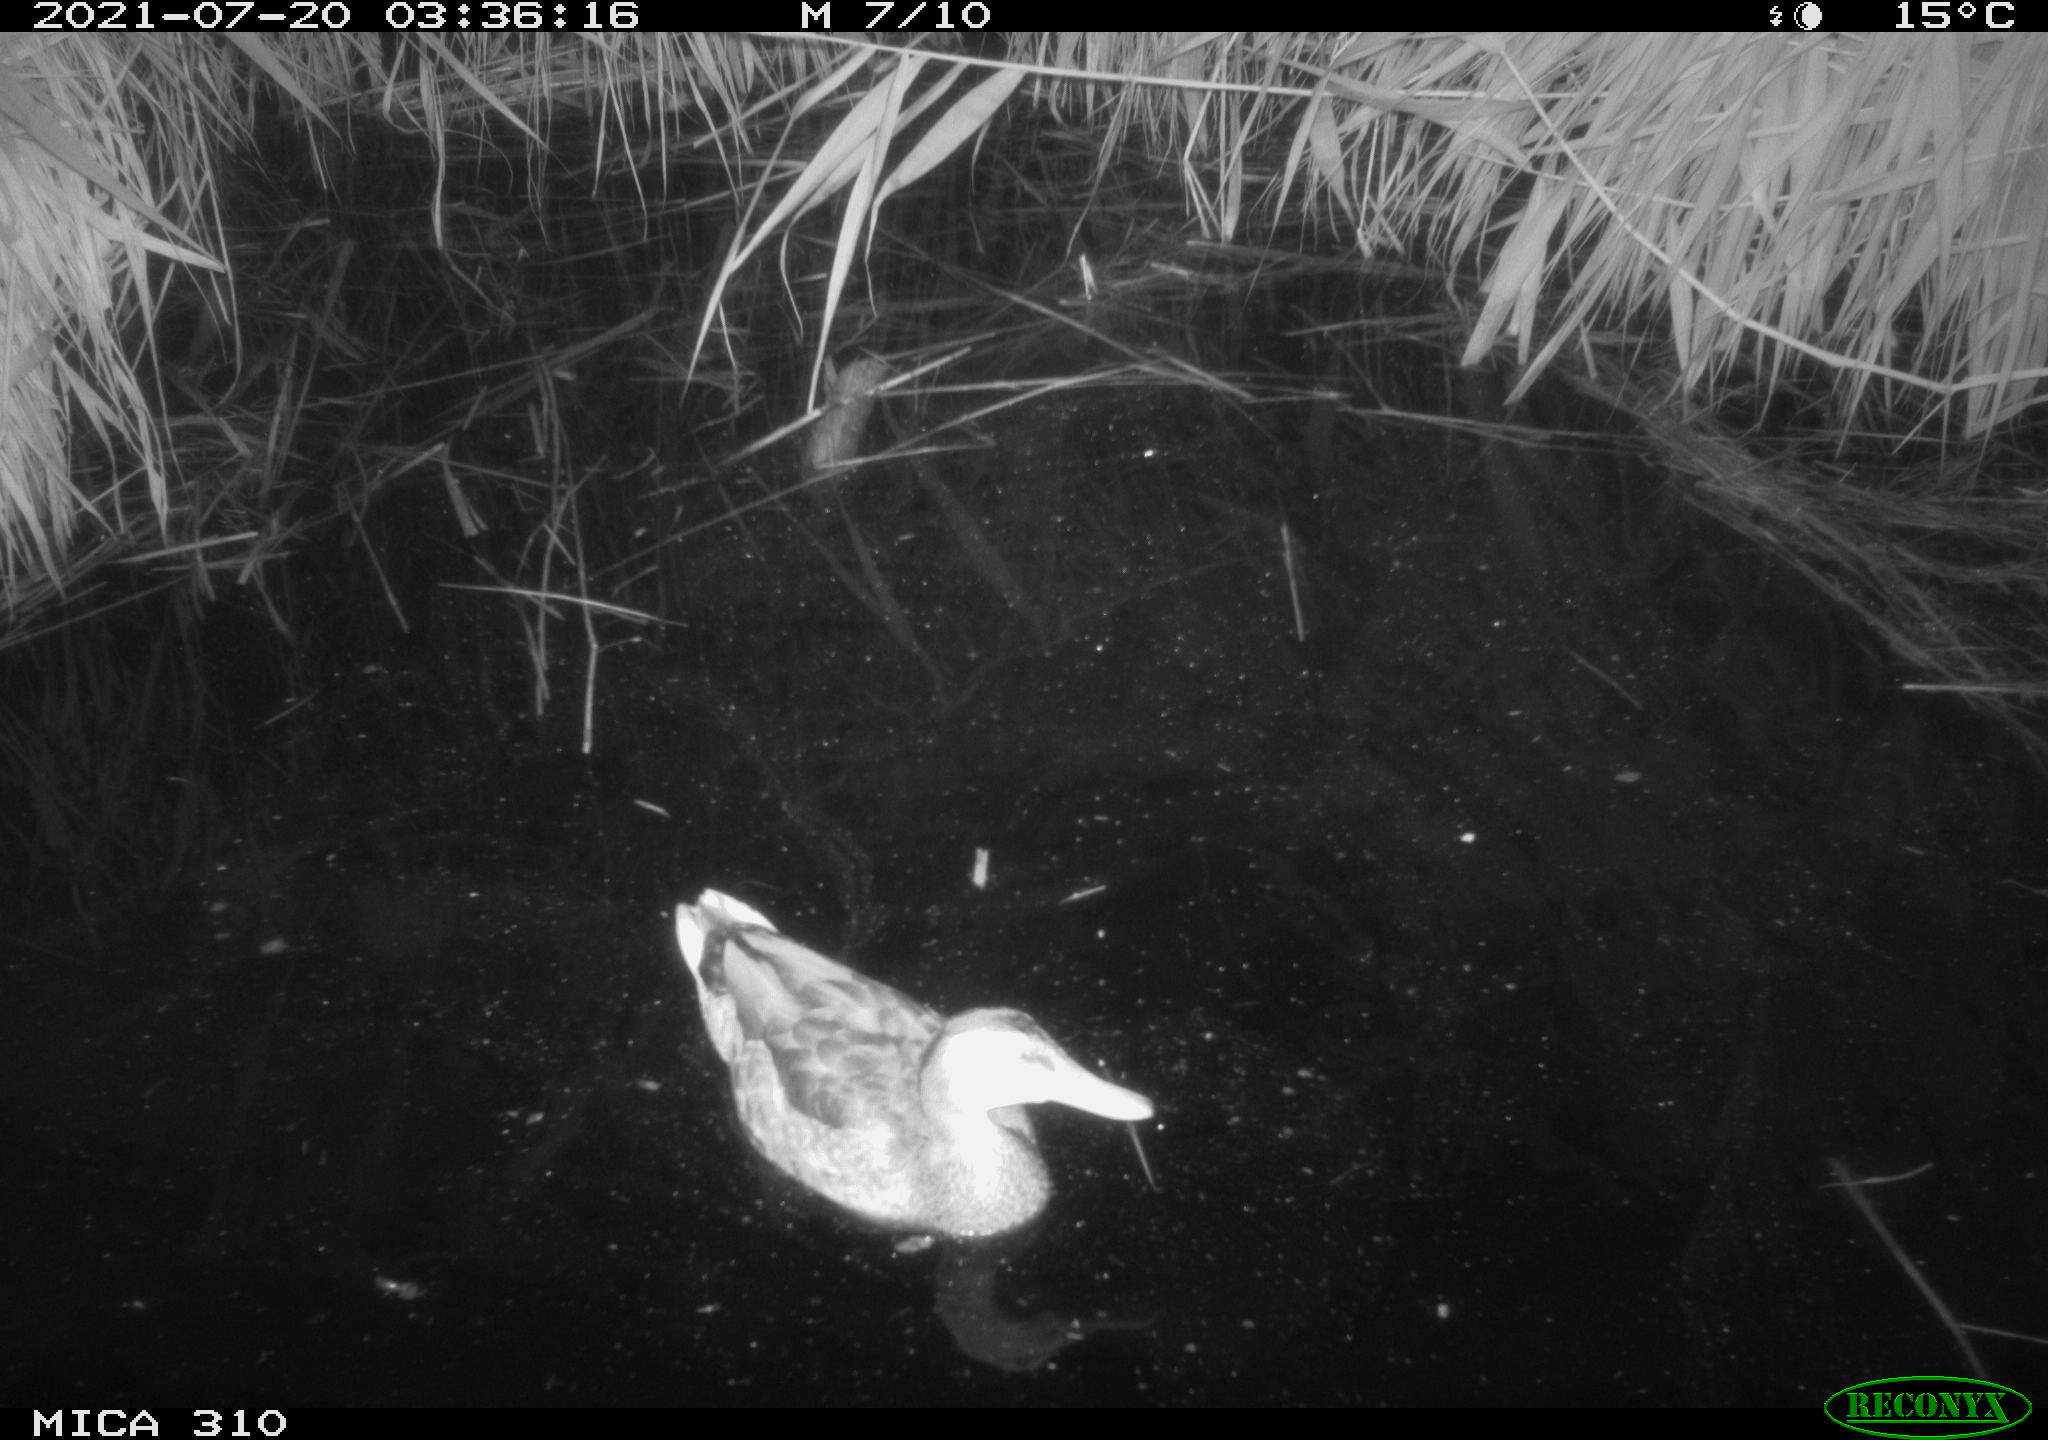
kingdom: Animalia
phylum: Chordata
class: Aves
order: Anseriformes
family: Anatidae
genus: Anas
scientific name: Anas platyrhynchos
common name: Mallard
